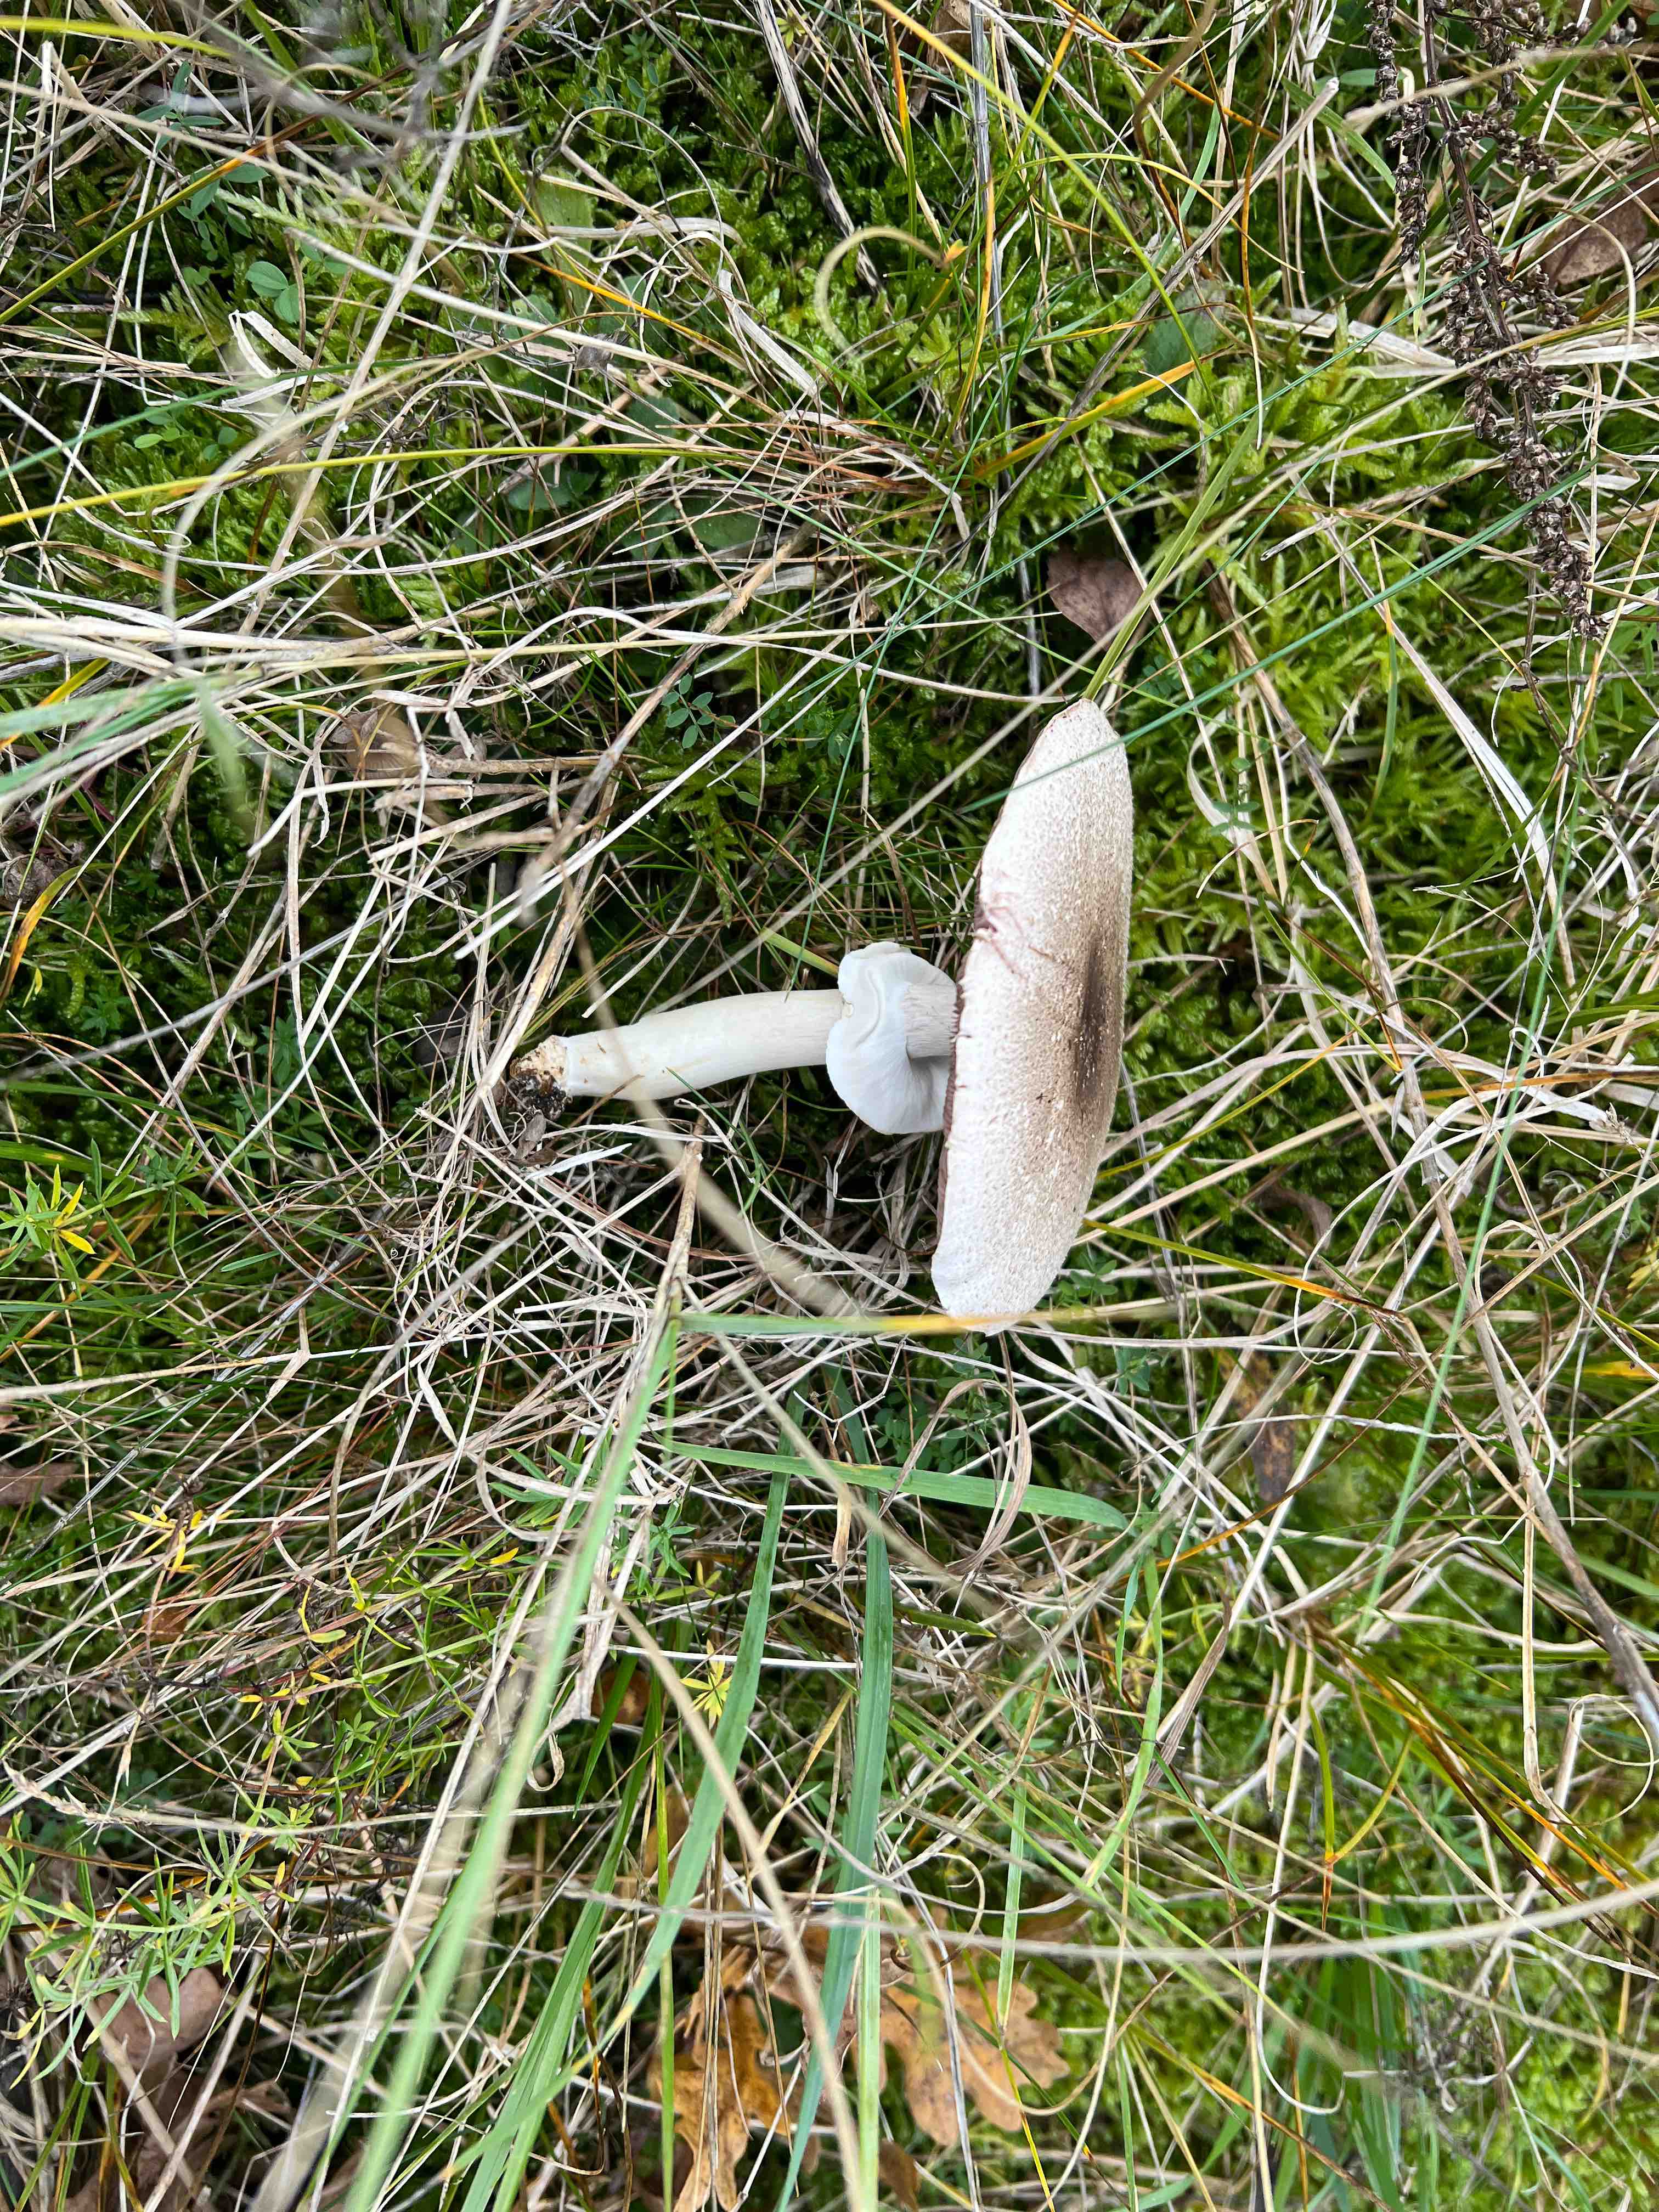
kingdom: Fungi
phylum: Basidiomycota
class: Agaricomycetes
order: Agaricales
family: Agaricaceae
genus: Agaricus
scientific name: Agaricus moelleri
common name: perlehøne-champignon
